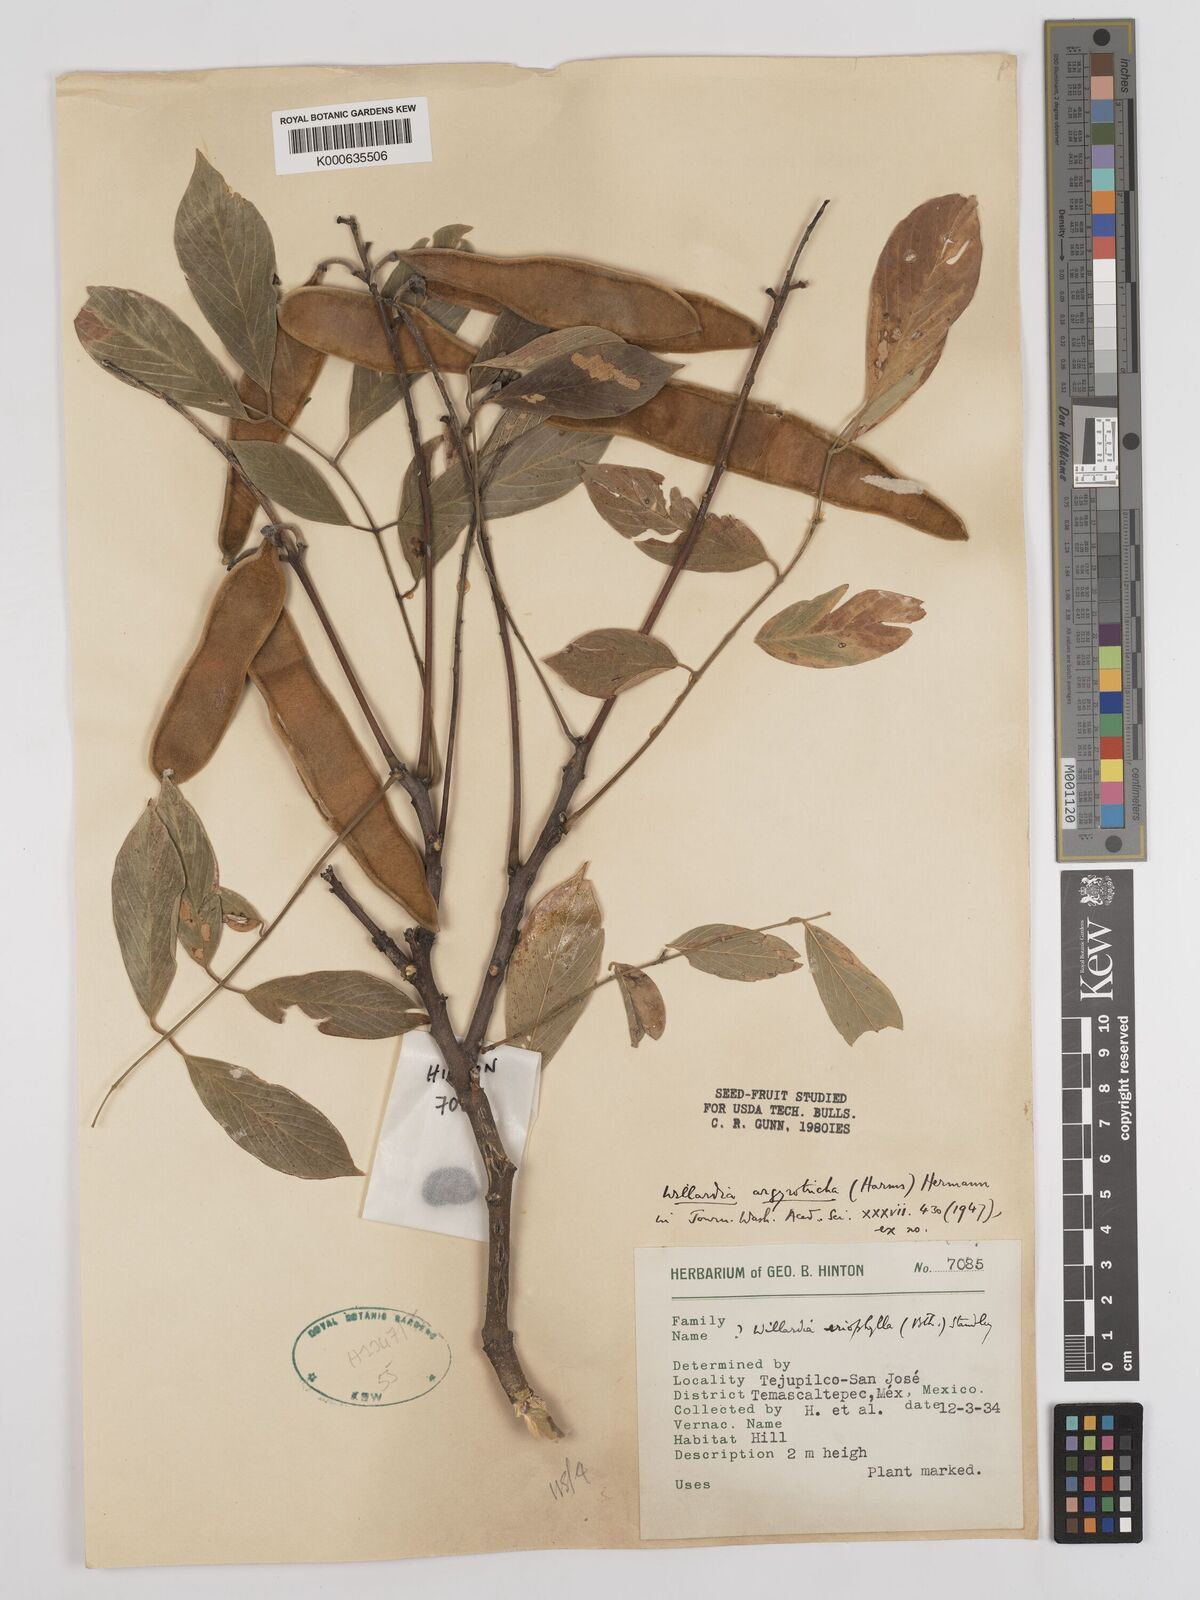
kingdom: Plantae
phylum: Tracheophyta
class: Magnoliopsida
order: Fabales
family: Fabaceae
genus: Lonchocarpus
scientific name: Lonchocarpus argyrotrichus
